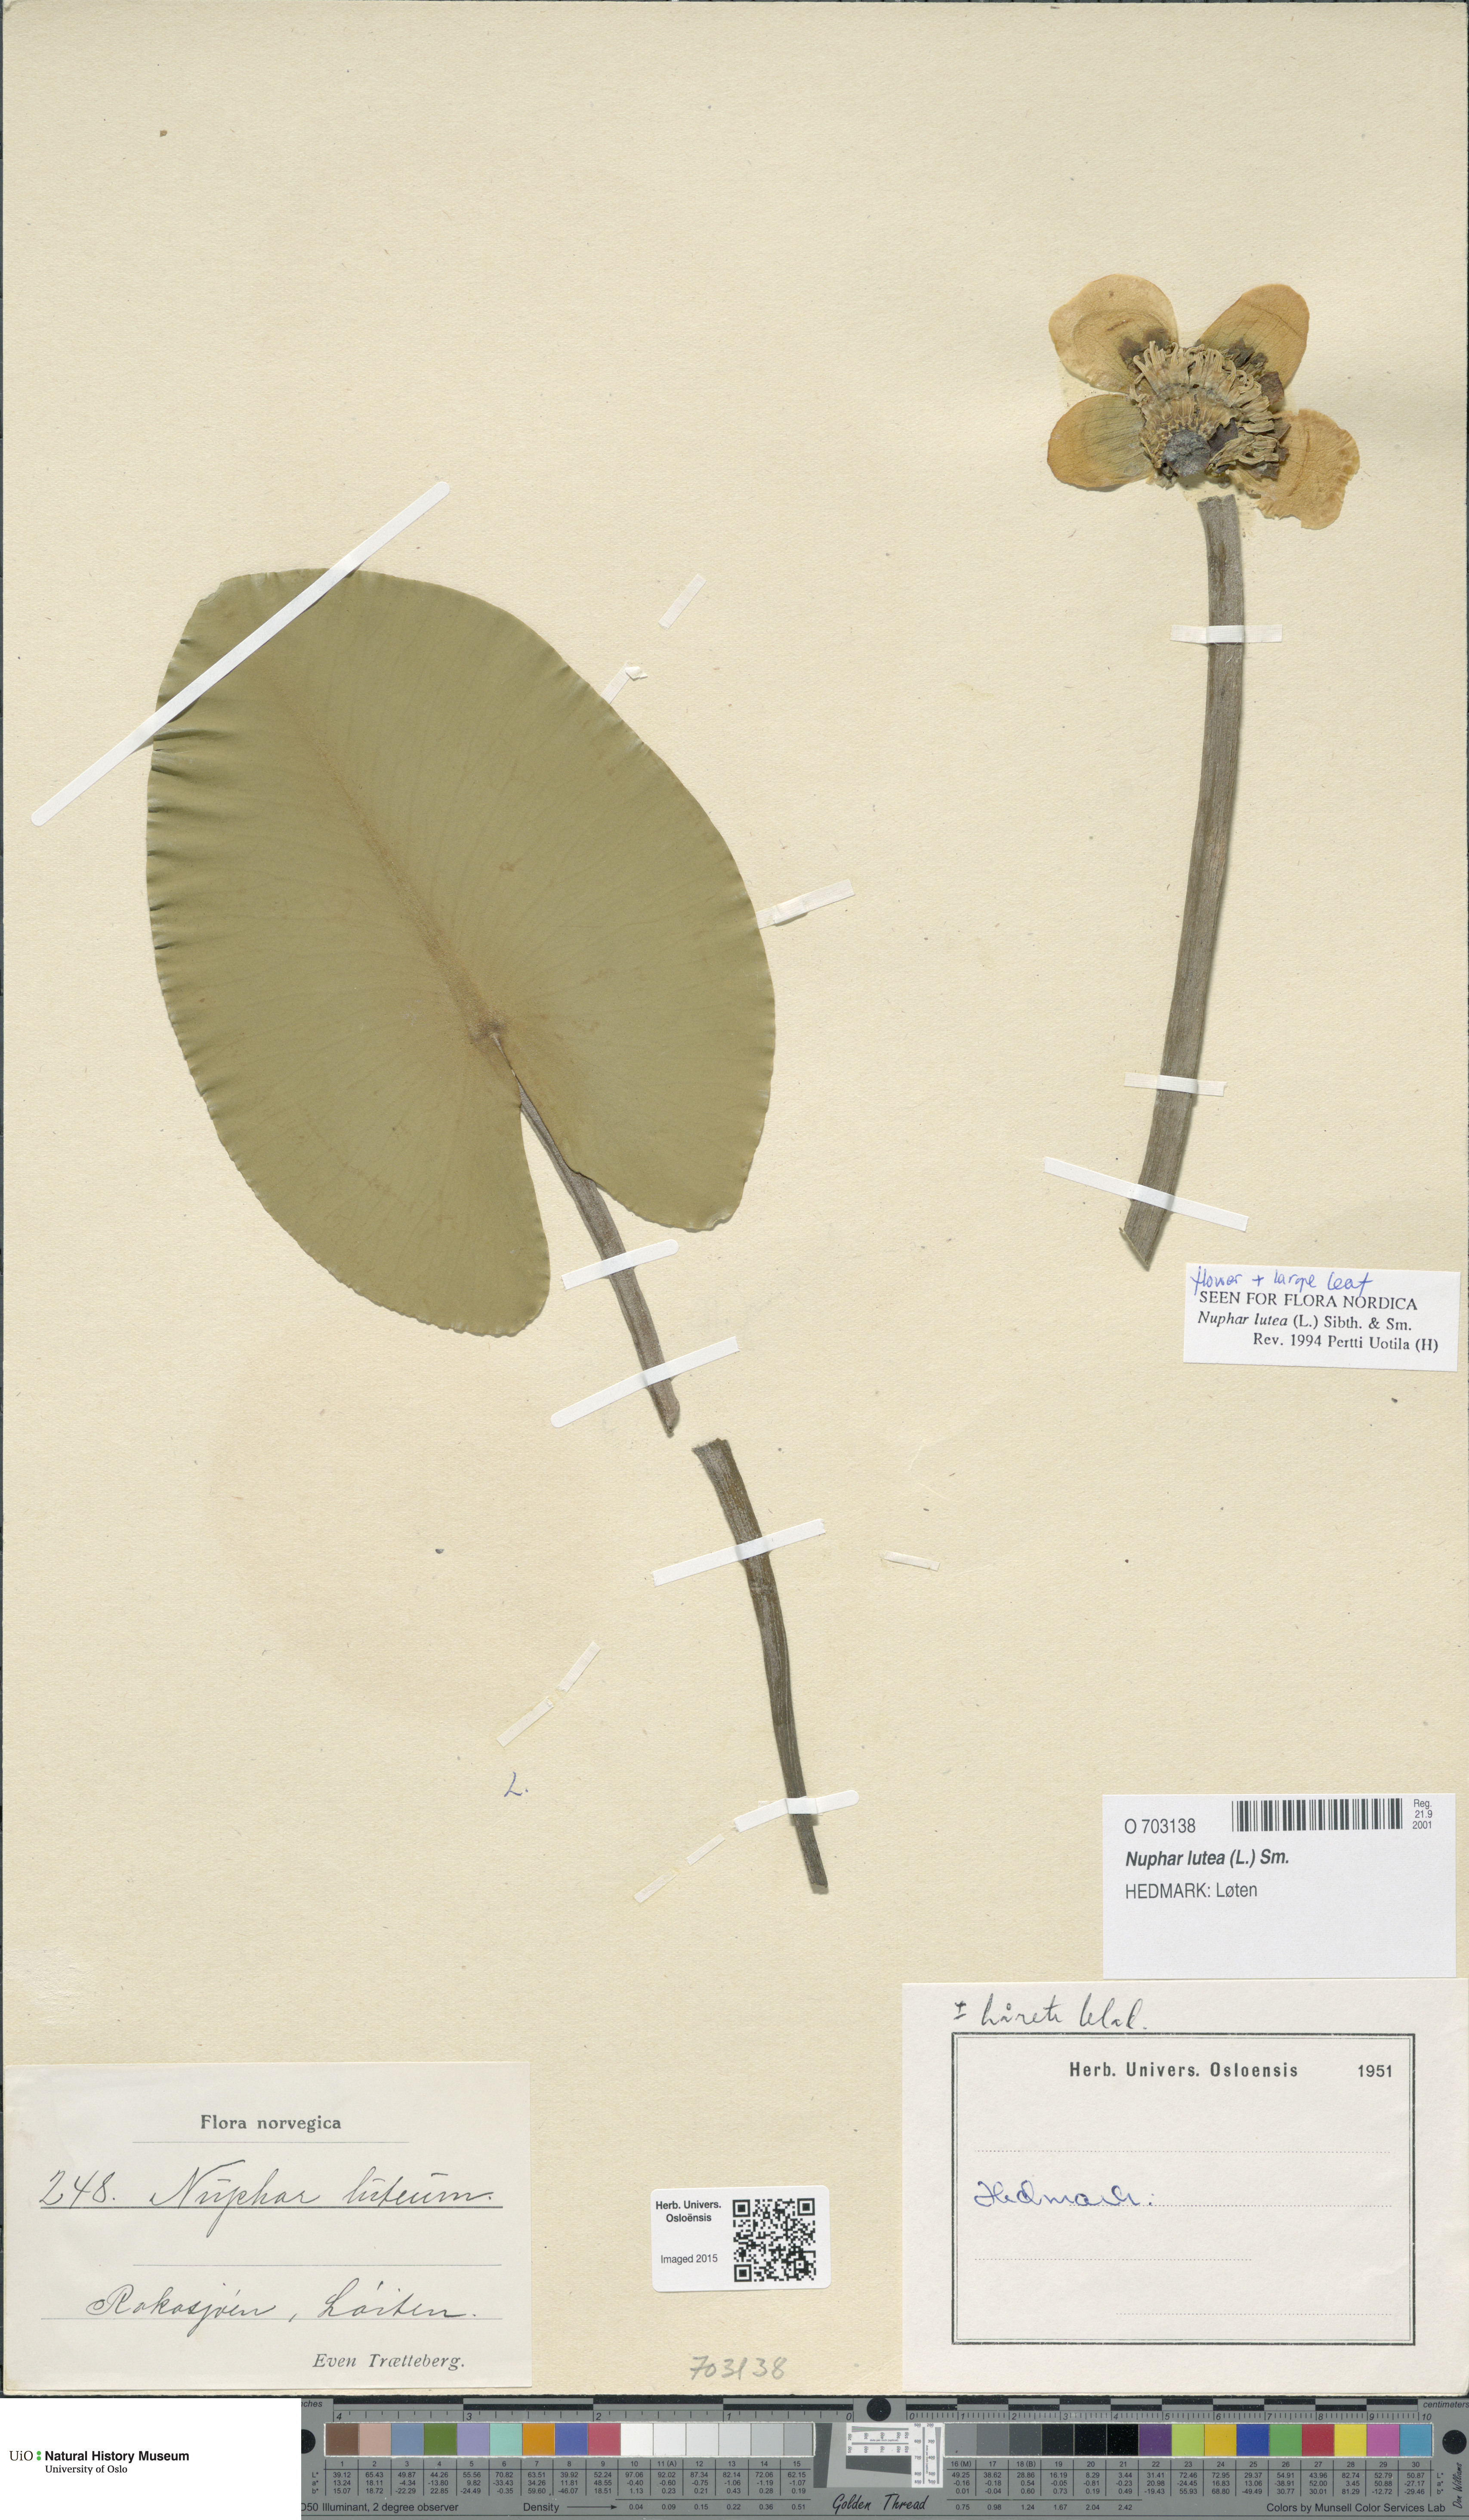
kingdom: Plantae
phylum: Tracheophyta
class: Magnoliopsida
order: Nymphaeales
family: Nymphaeaceae
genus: Nuphar
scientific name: Nuphar lutea
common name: Yellow water-lily
